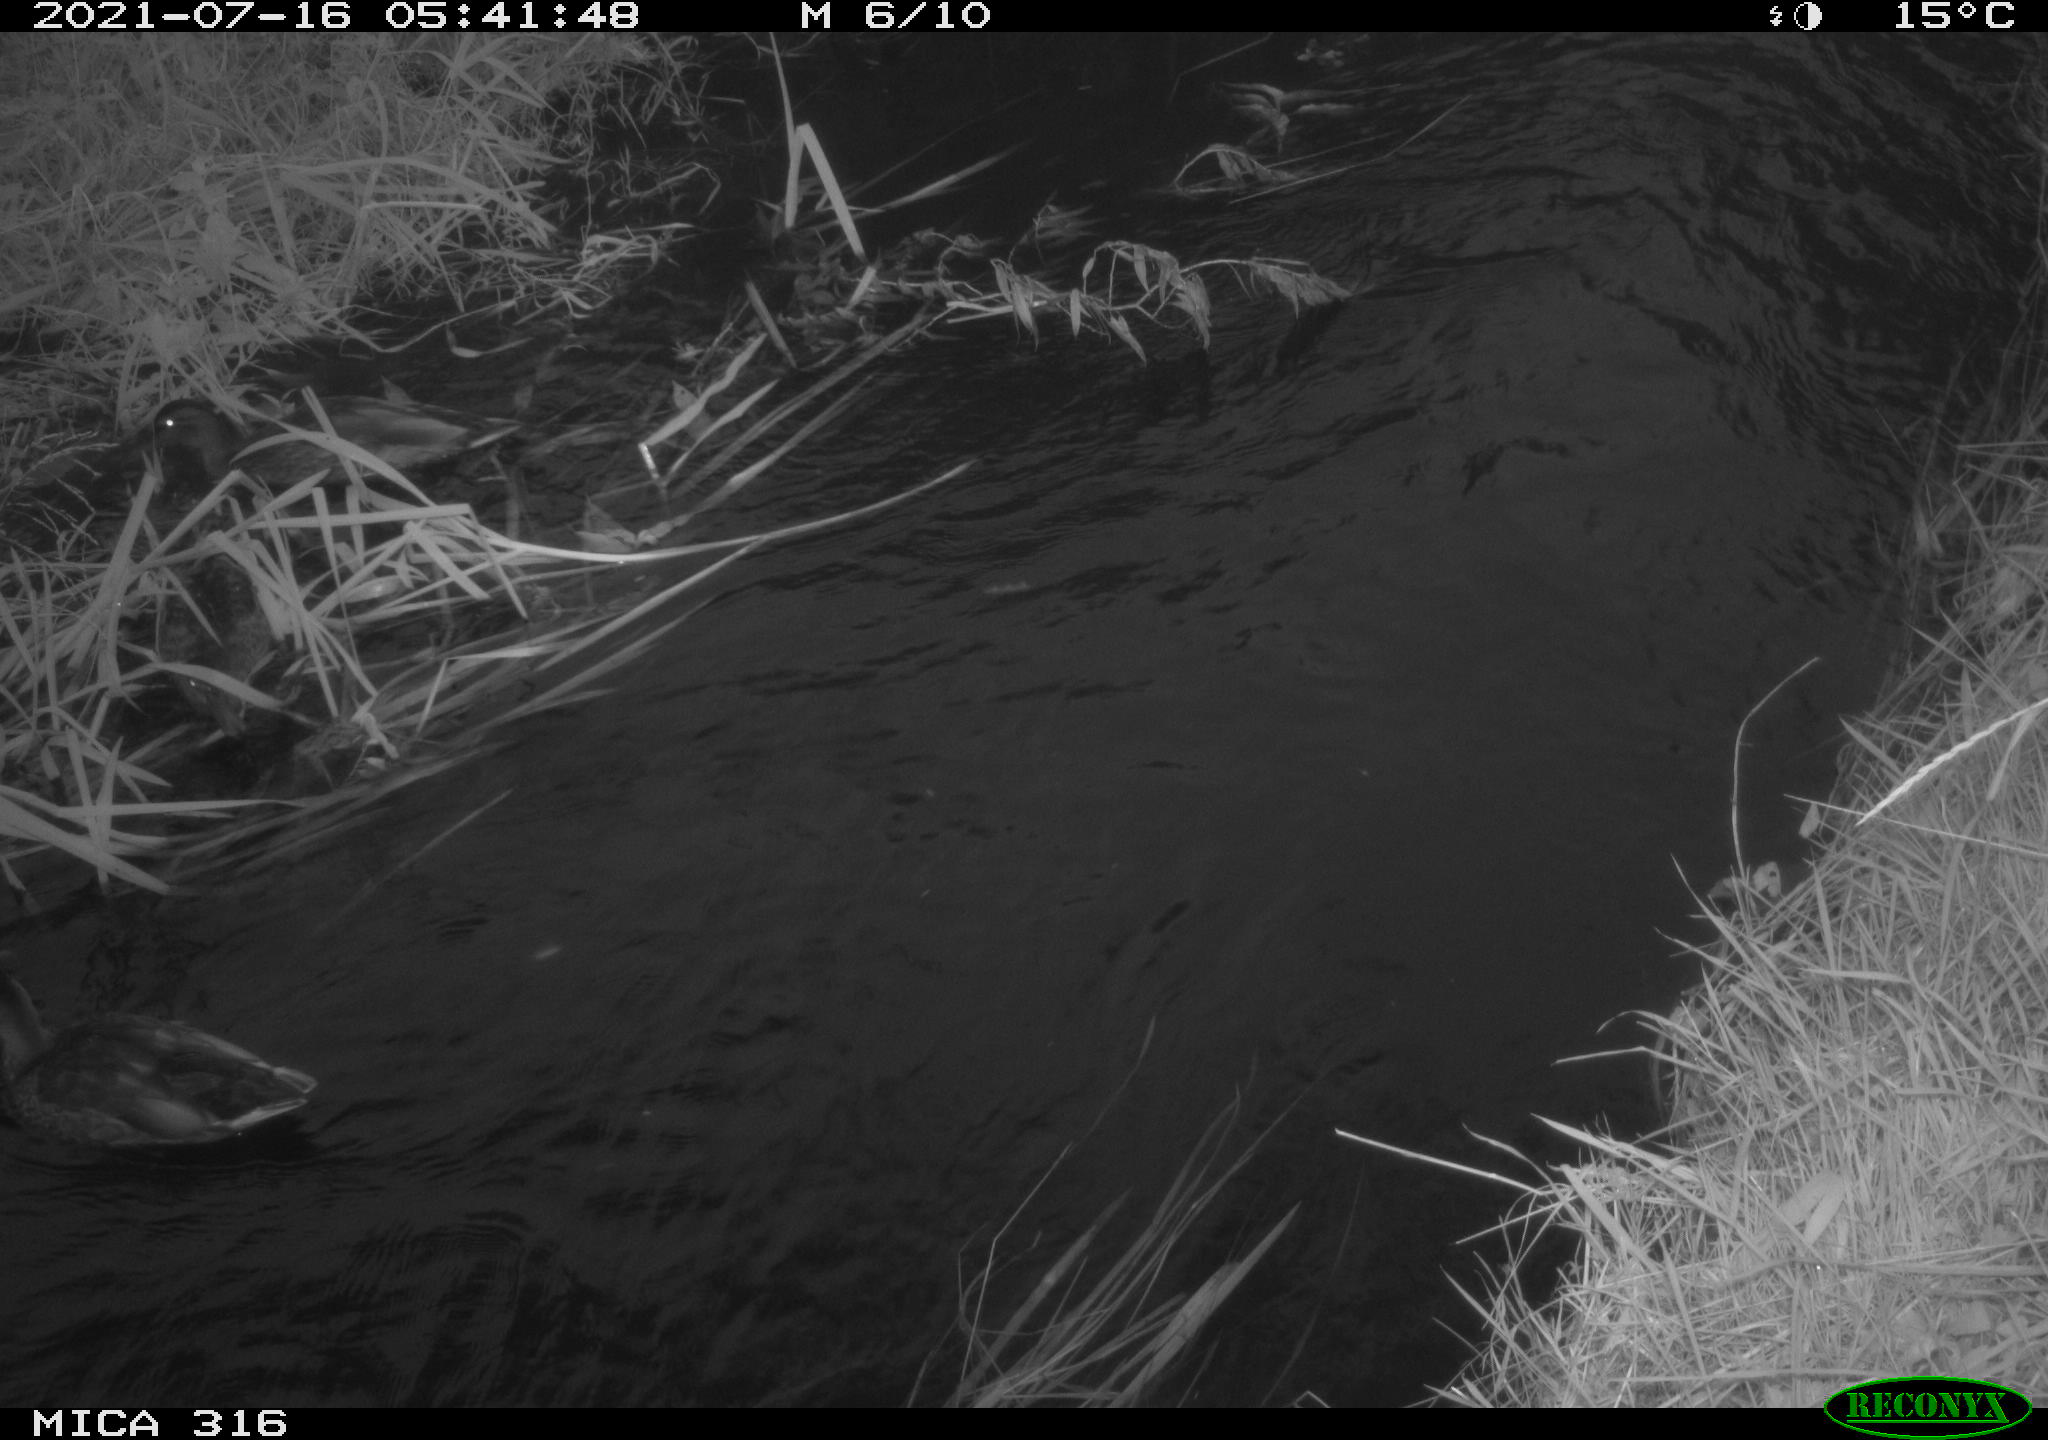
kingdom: Animalia
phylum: Chordata
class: Aves
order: Anseriformes
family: Anatidae
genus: Anas
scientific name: Anas platyrhynchos
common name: Mallard
